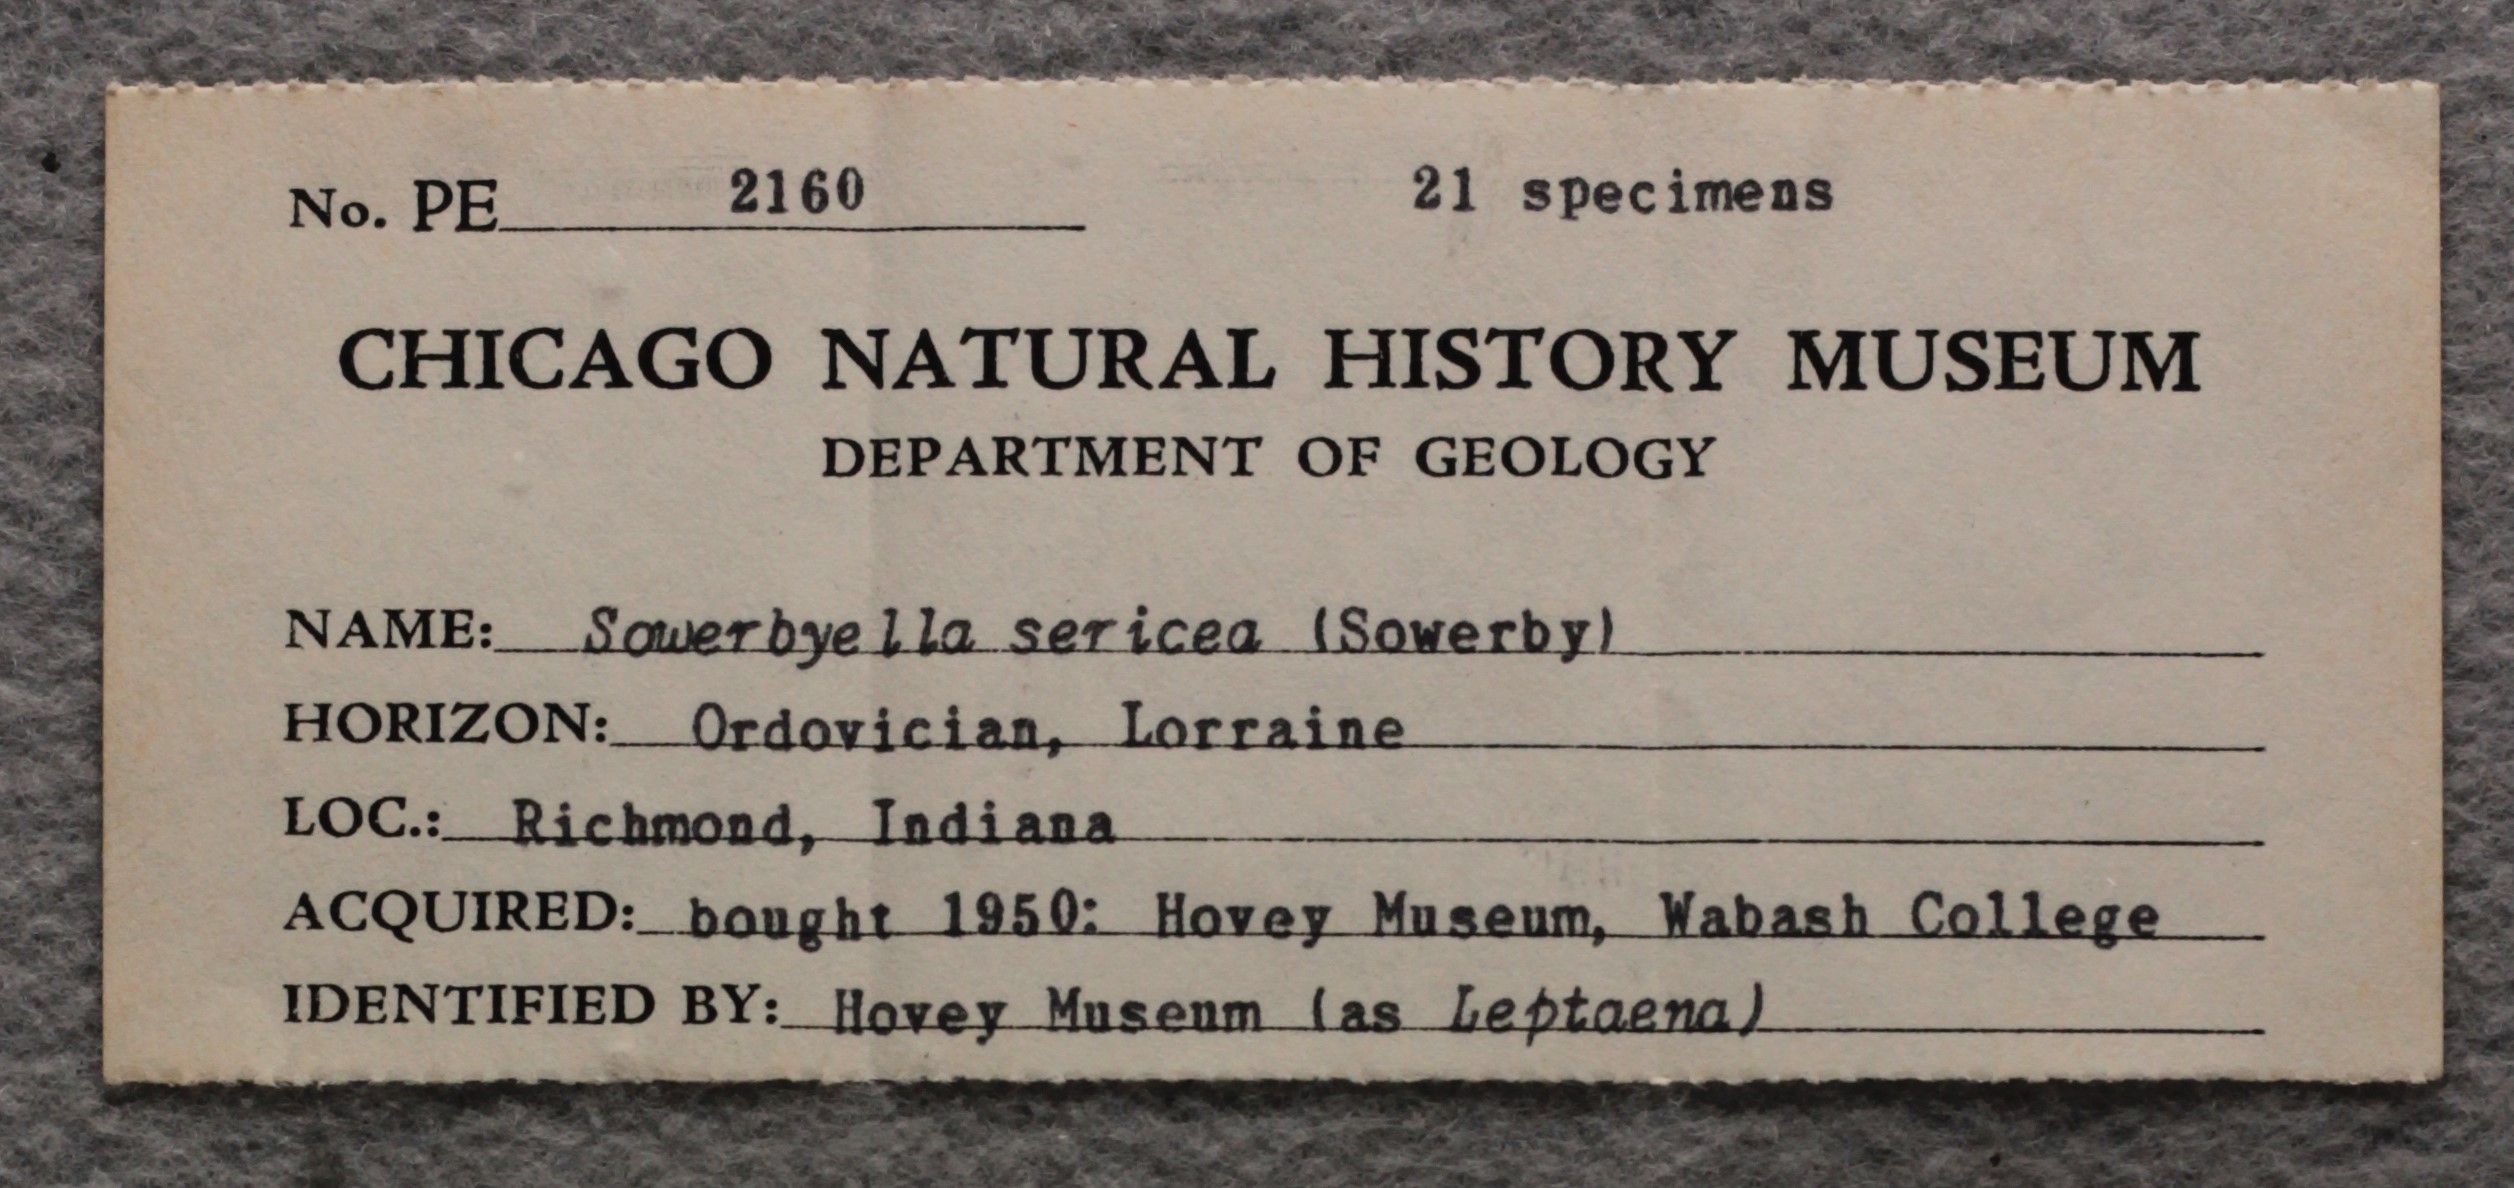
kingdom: Animalia
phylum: Brachiopoda
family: Sowerbyellidae
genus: Sowerbyella
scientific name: Sowerbyella Leptaena sericea
